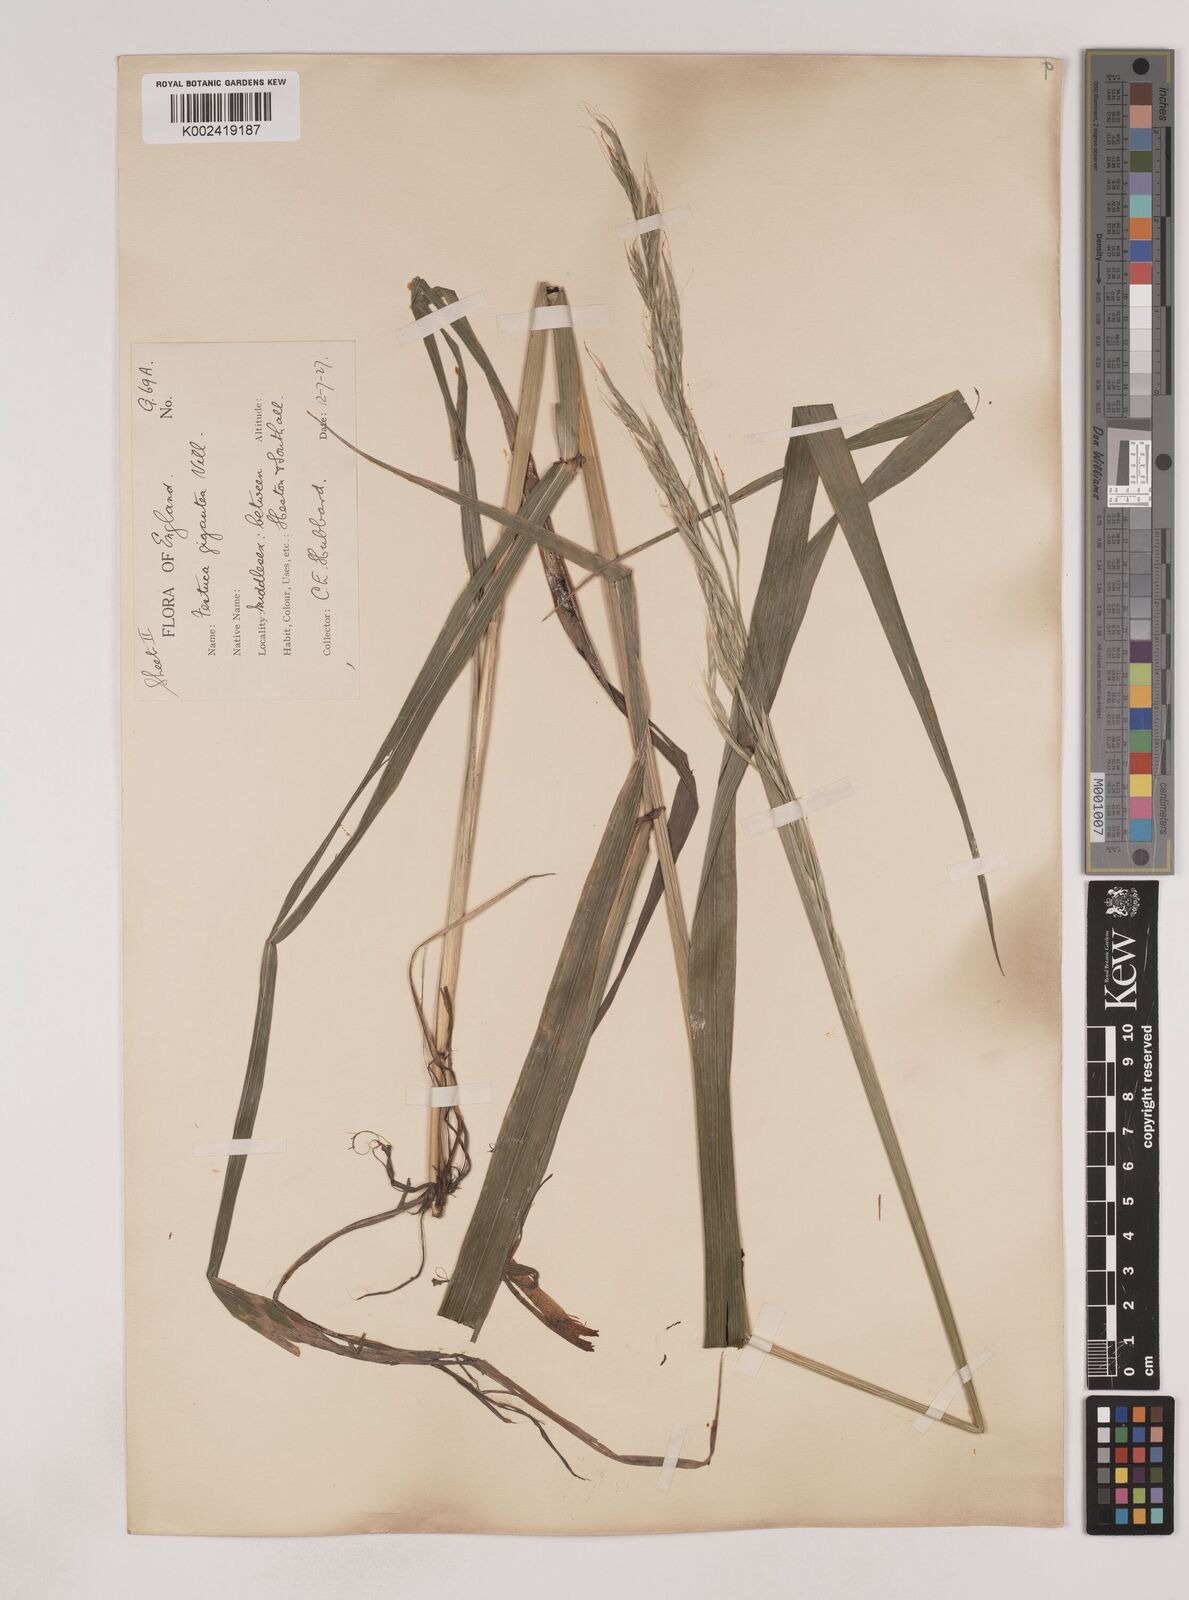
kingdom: Plantae
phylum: Tracheophyta
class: Liliopsida
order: Poales
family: Poaceae
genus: Lolium
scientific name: Lolium giganteum
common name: Giant fescue
